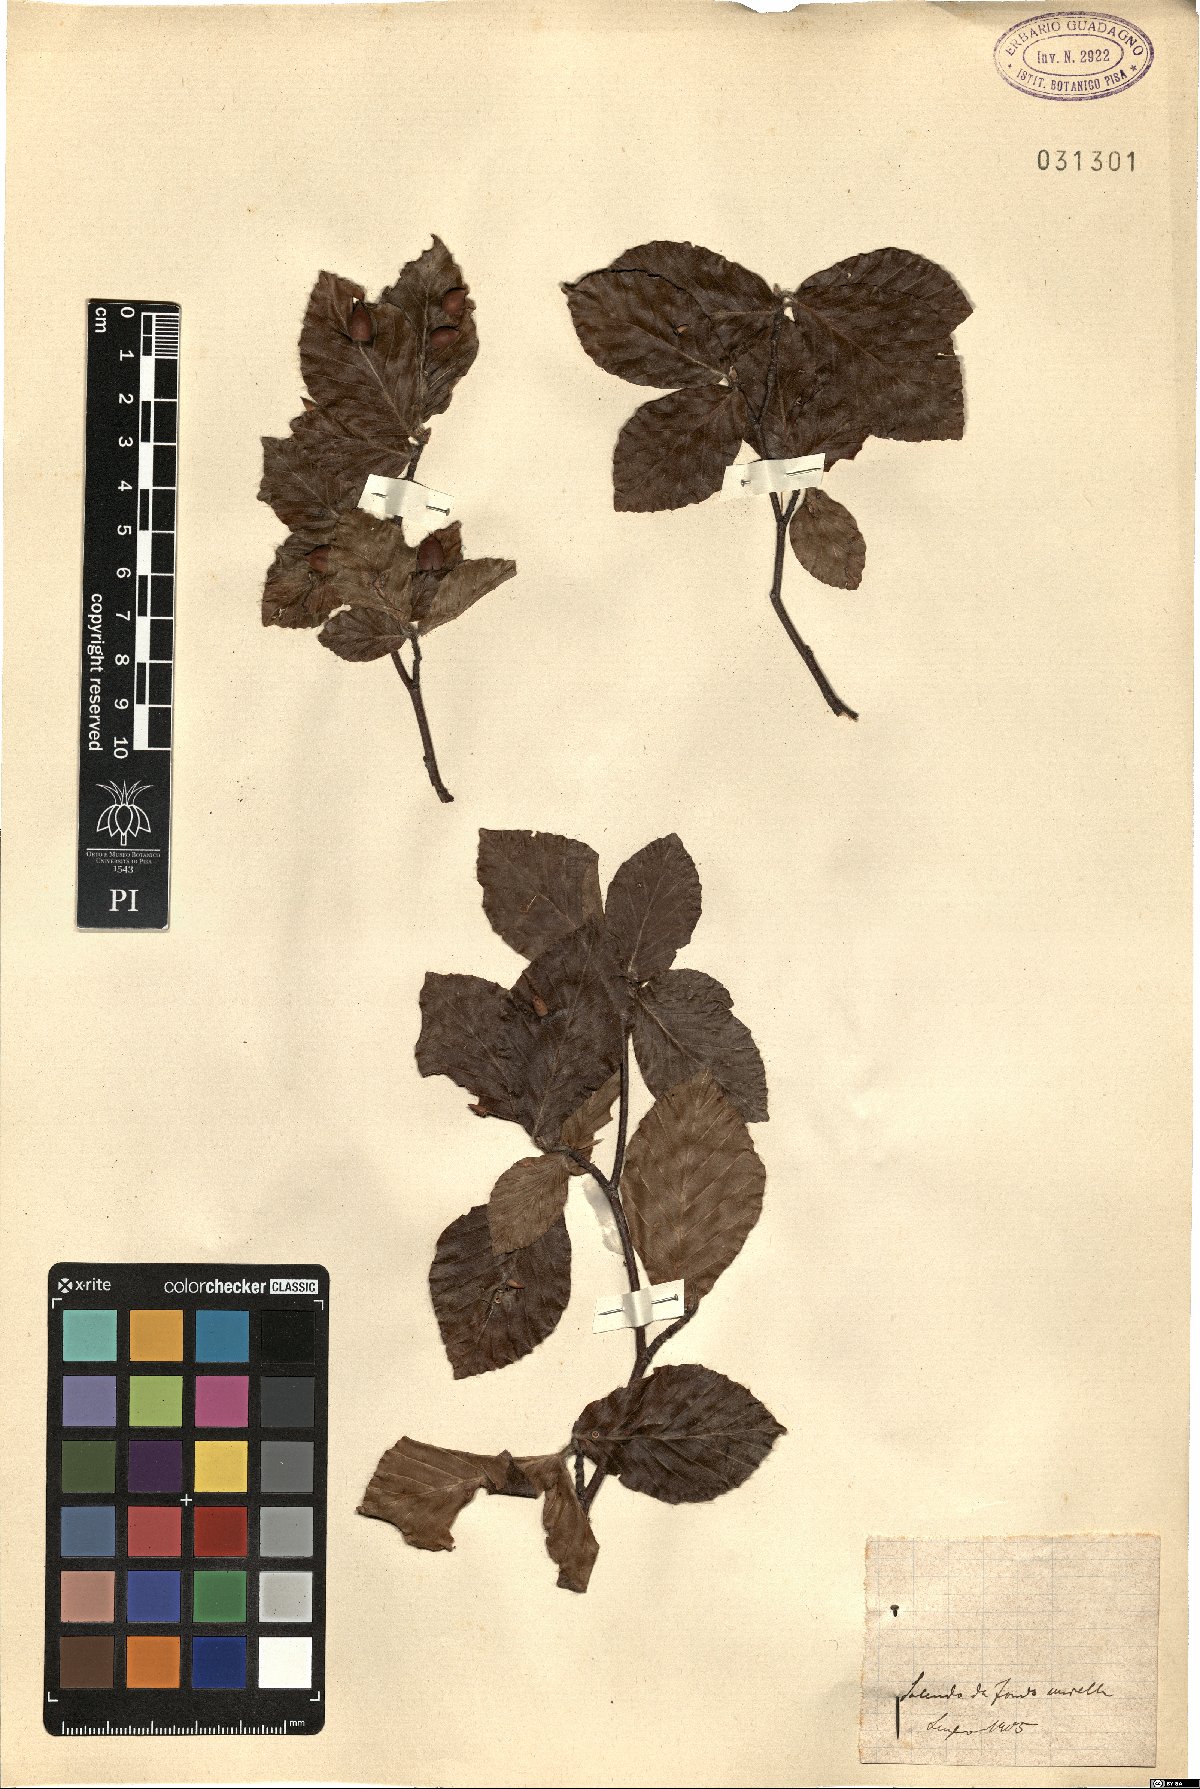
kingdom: Plantae
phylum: Tracheophyta
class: Magnoliopsida
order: Fagales
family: Fagaceae
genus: Fagus
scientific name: Fagus
